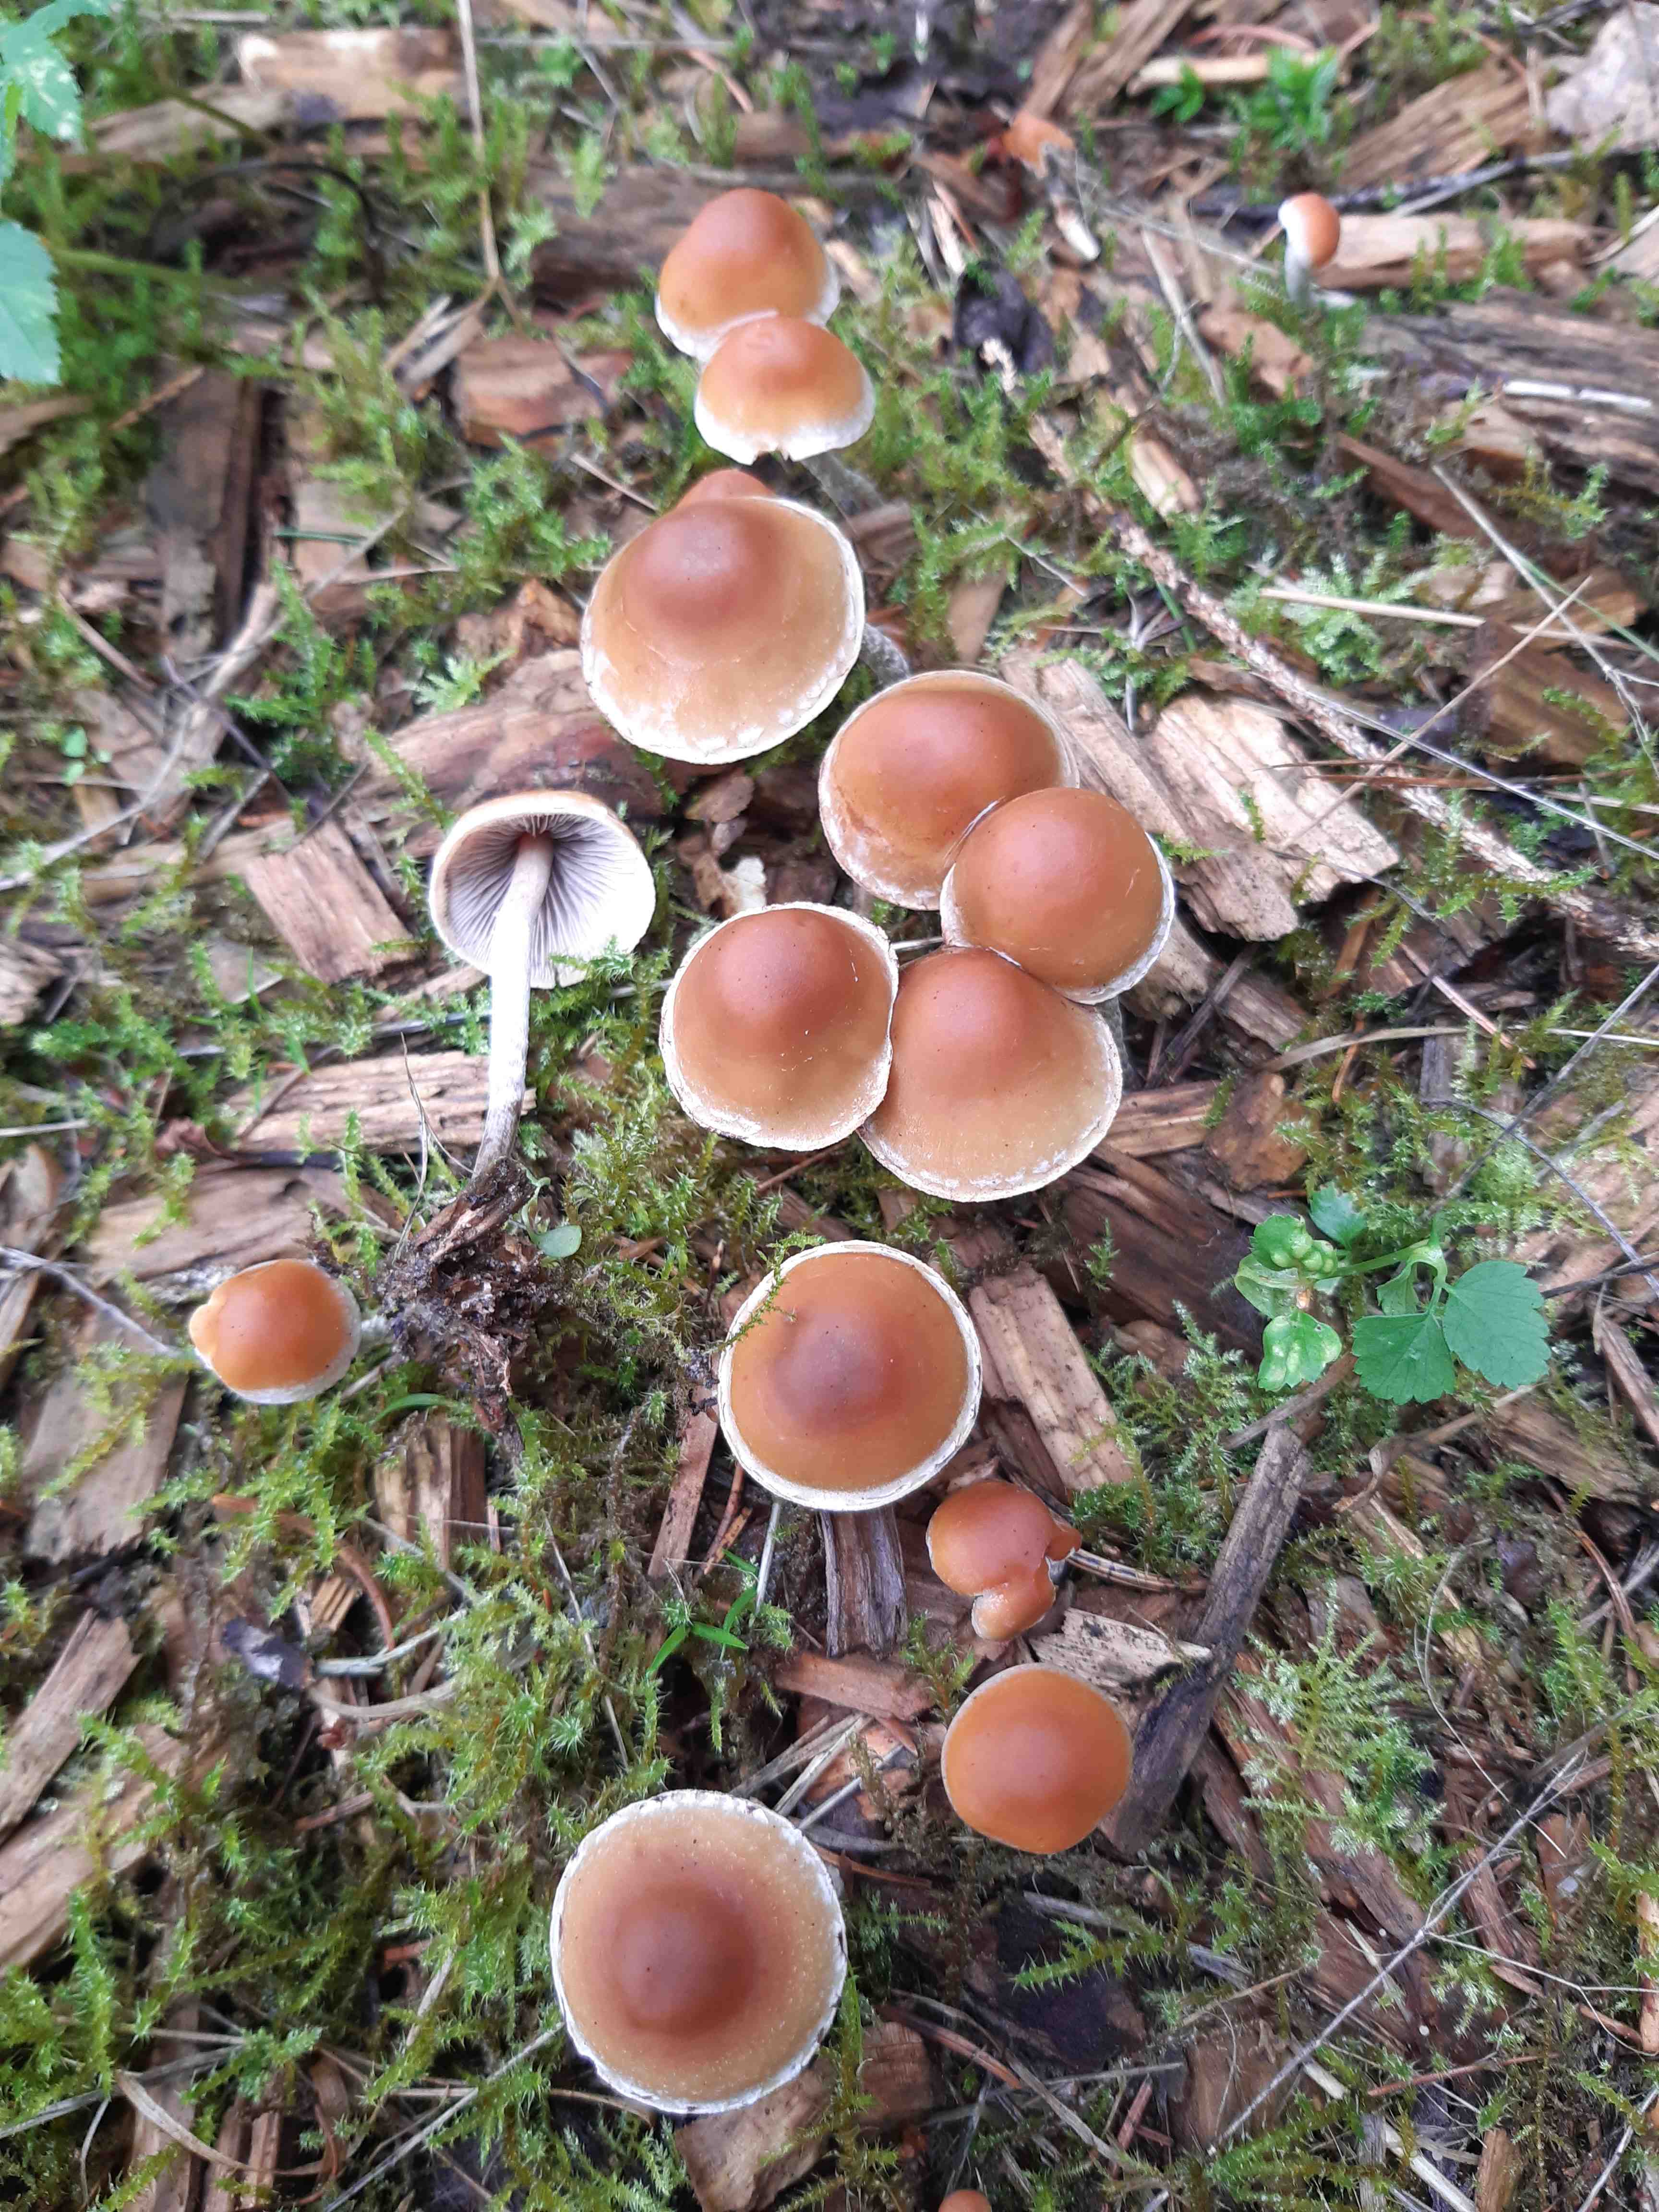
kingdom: Fungi
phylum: Basidiomycota
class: Agaricomycetes
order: Agaricales
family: Strophariaceae
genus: Hypholoma
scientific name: Hypholoma marginatum
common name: enlig svovlhat
